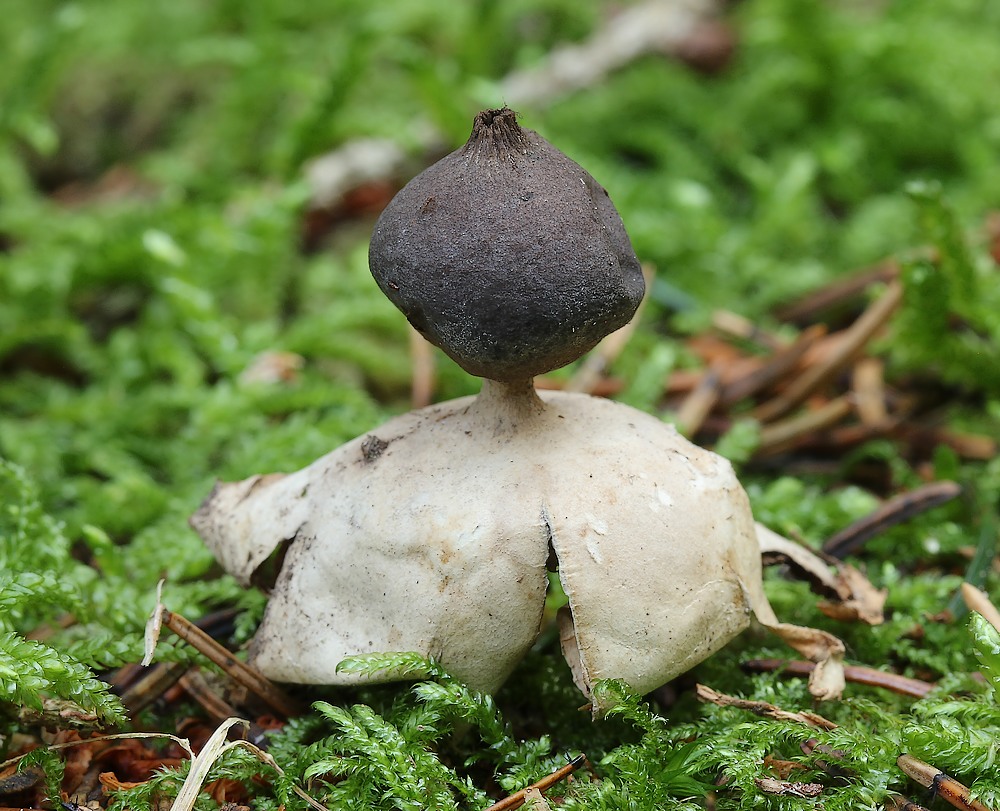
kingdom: Fungi
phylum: Basidiomycota
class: Agaricomycetes
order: Geastrales
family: Geastraceae
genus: Geastrum
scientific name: Geastrum pectinatum
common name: stilket stjernebold
